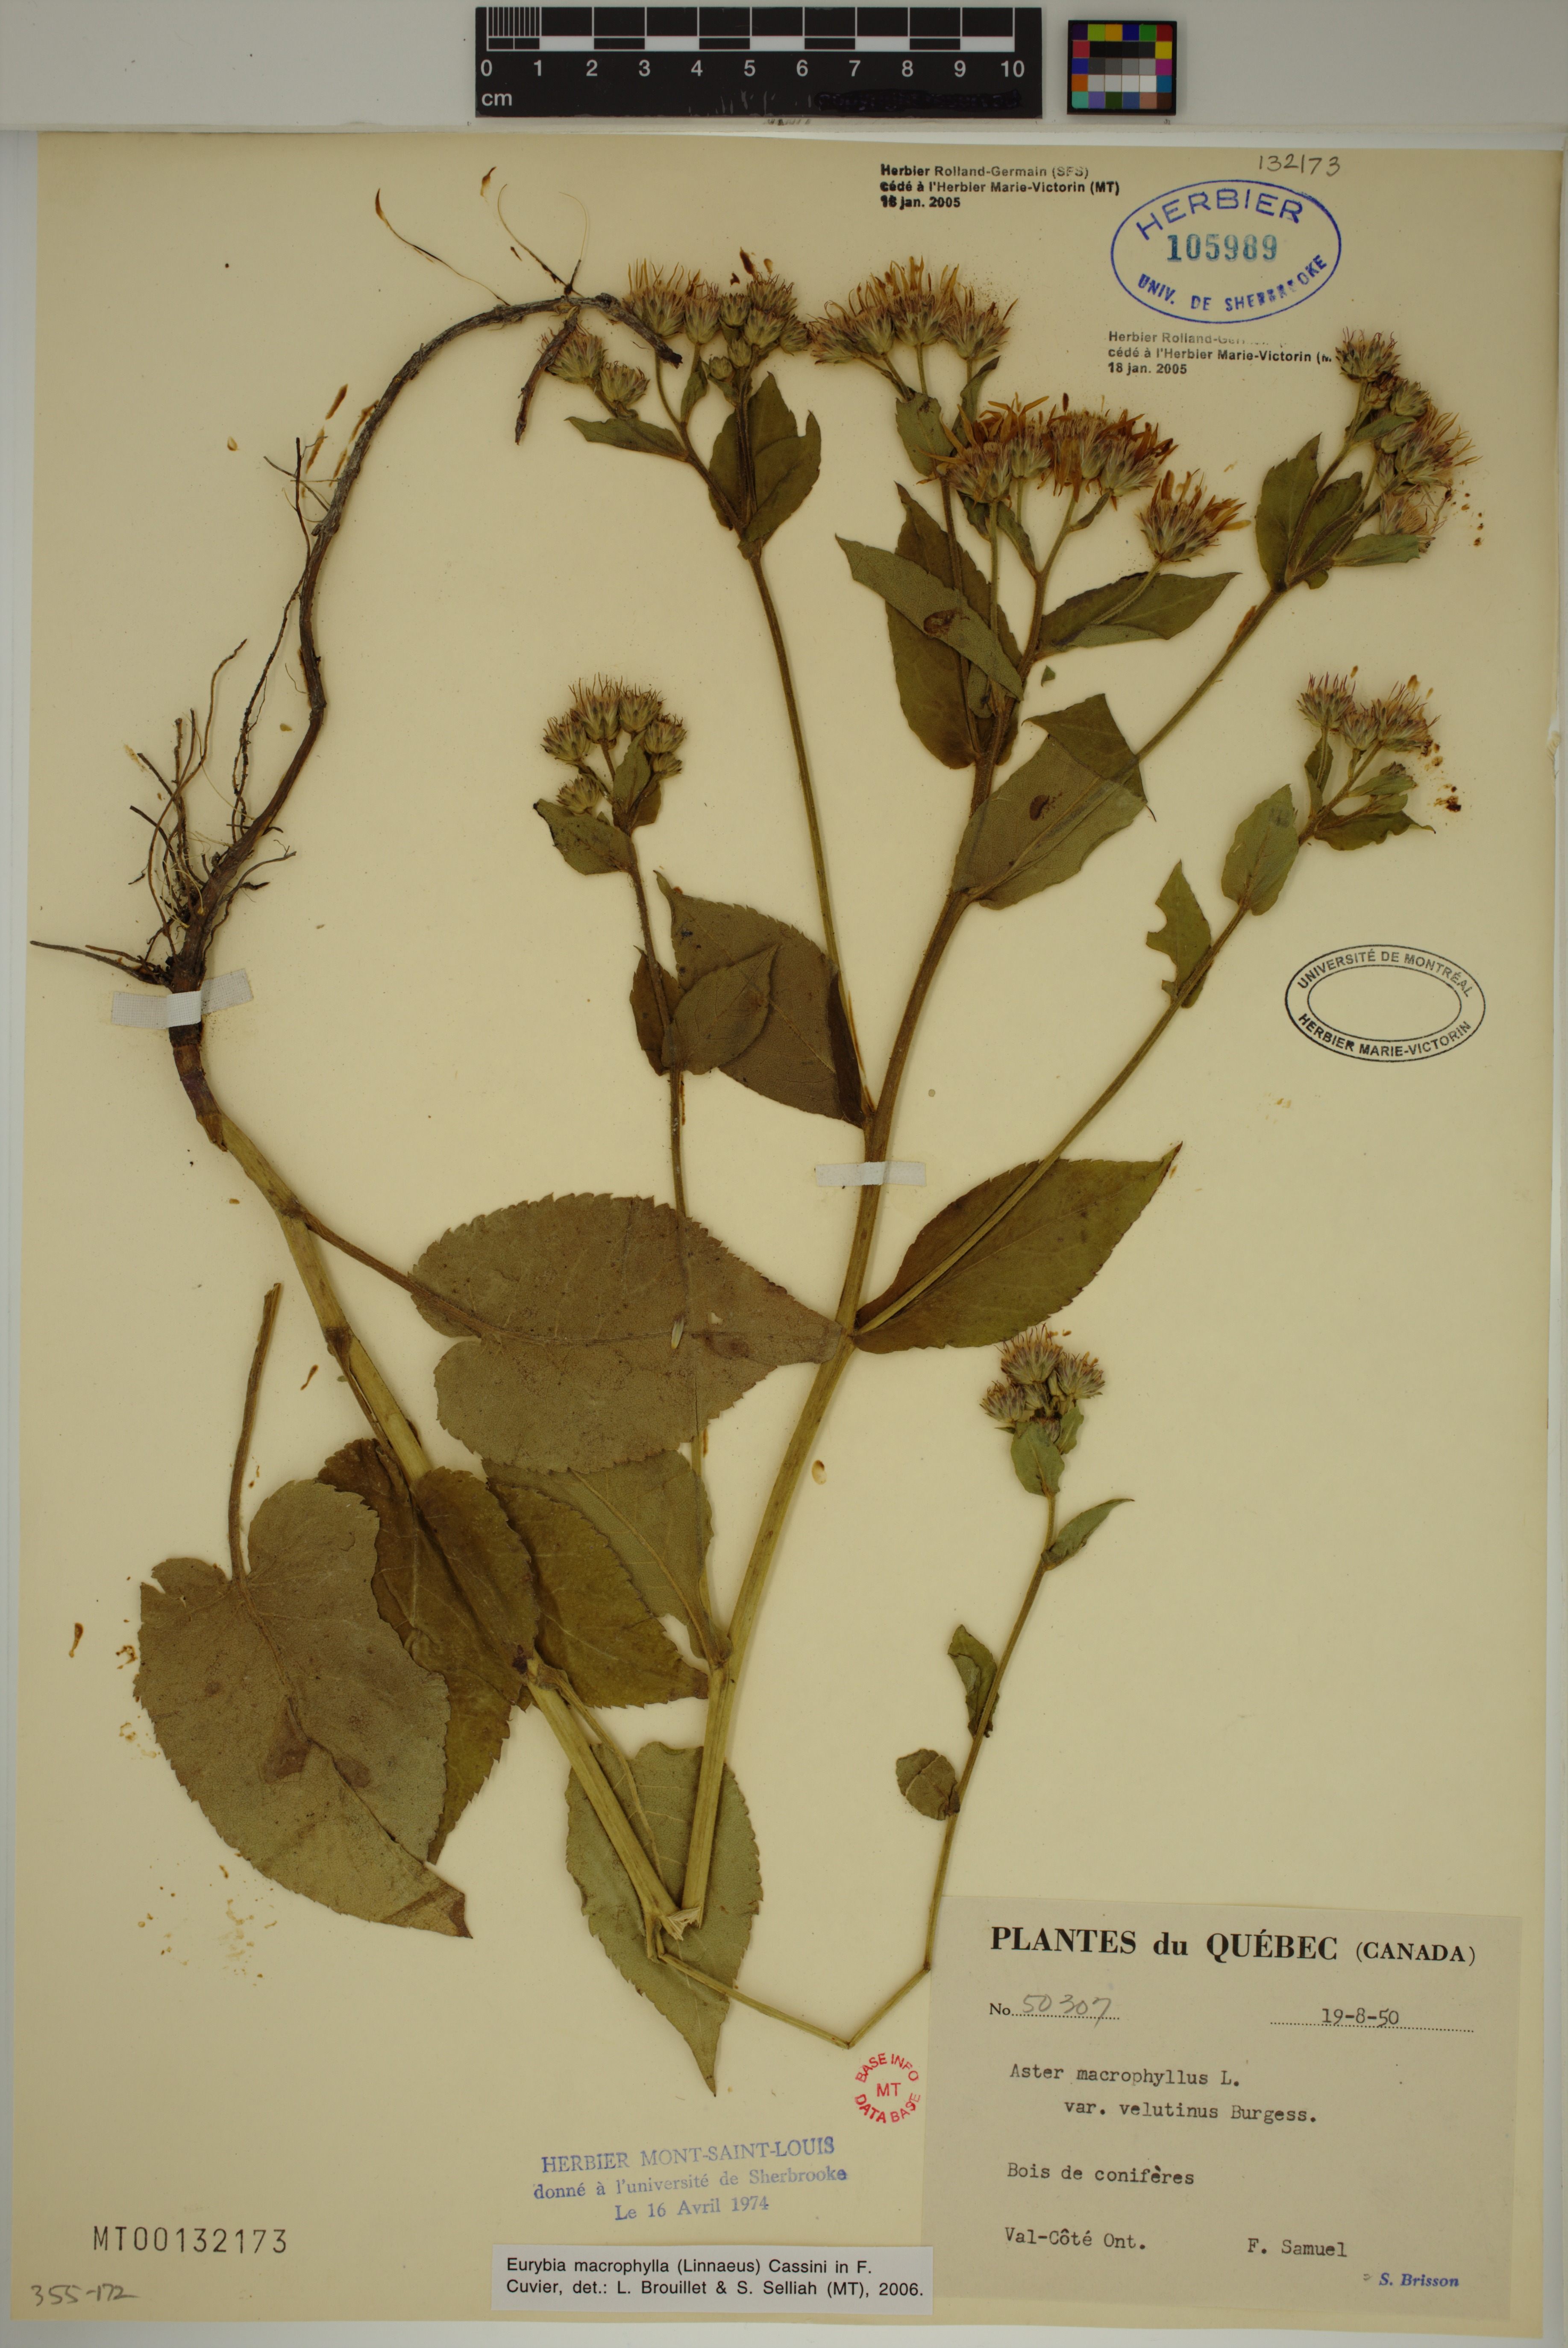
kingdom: Plantae
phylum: Tracheophyta
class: Magnoliopsida
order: Asterales
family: Asteraceae
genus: Eurybia
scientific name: Eurybia macrophylla
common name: Big-leaved aster
